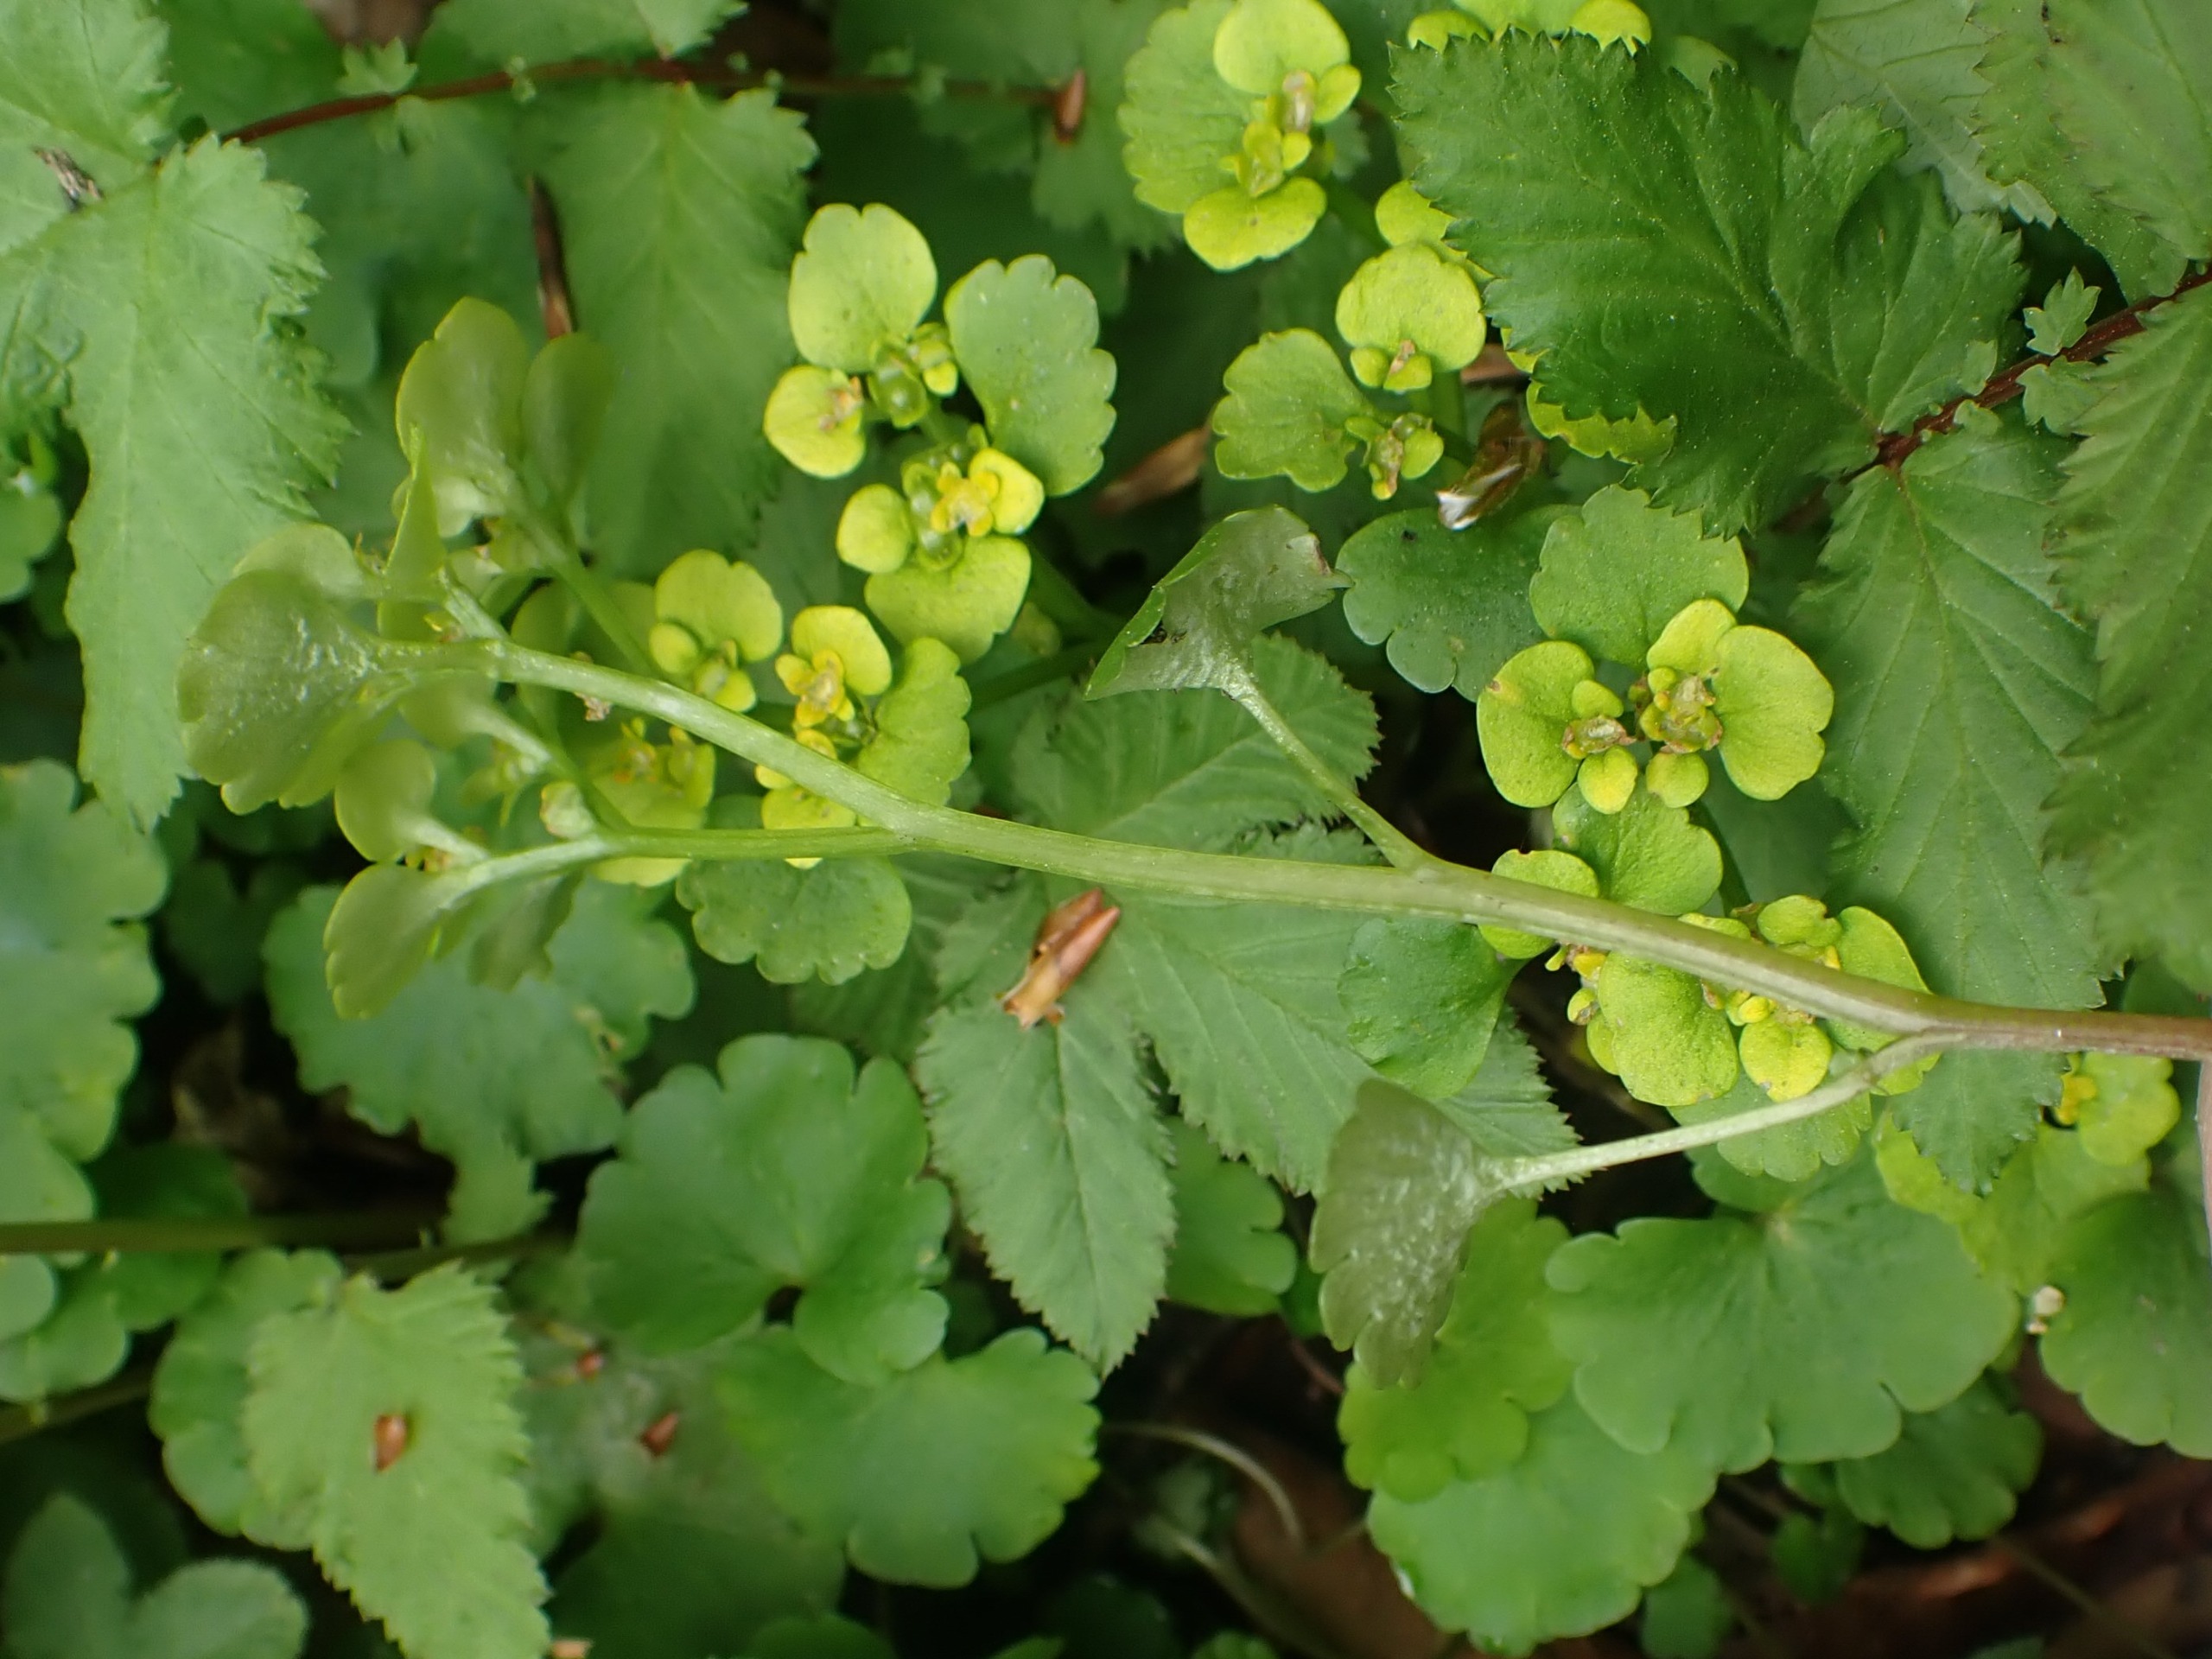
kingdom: Plantae
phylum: Tracheophyta
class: Magnoliopsida
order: Saxifragales
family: Saxifragaceae
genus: Chrysosplenium
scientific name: Chrysosplenium alternifolium
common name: Almindelig milturt
